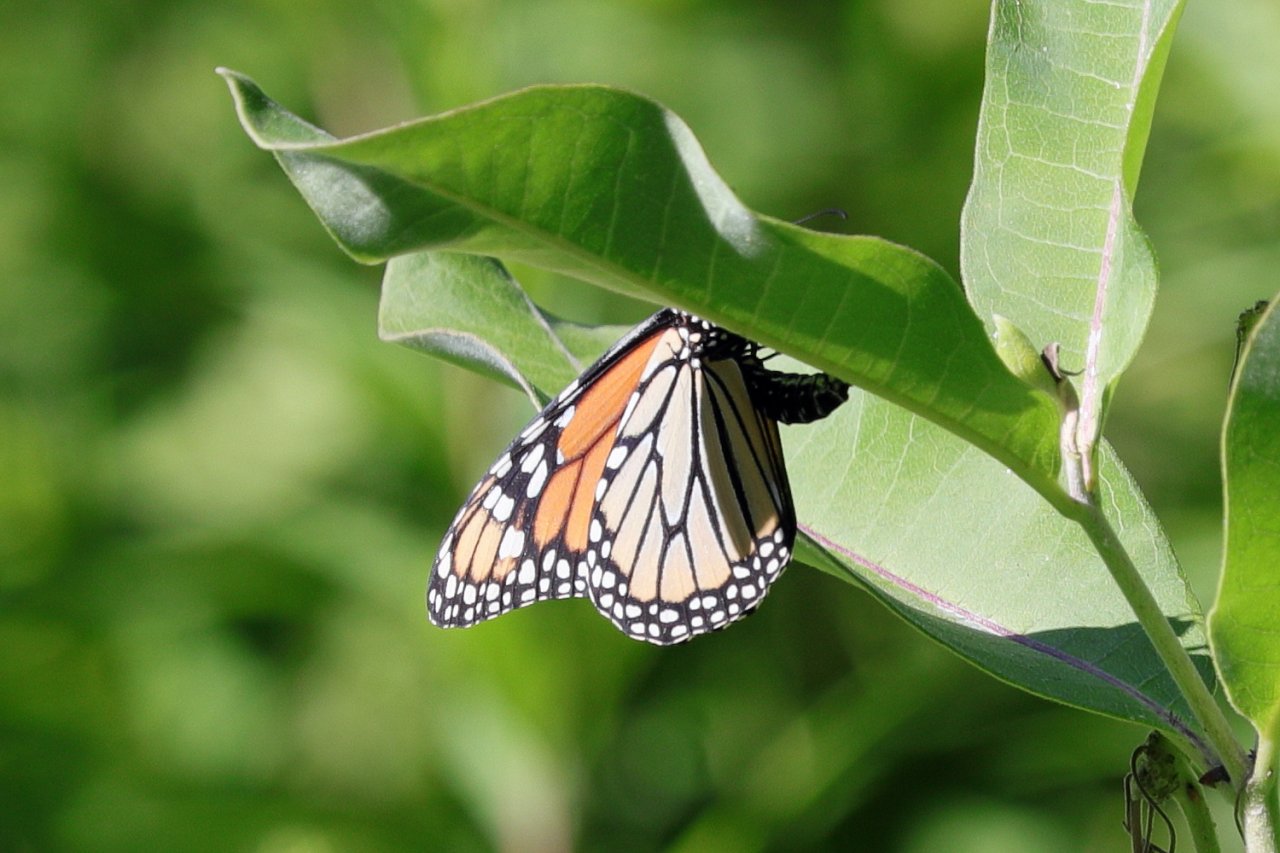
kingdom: Animalia
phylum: Arthropoda
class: Insecta
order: Lepidoptera
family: Nymphalidae
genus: Danaus
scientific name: Danaus plexippus
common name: Monarch
